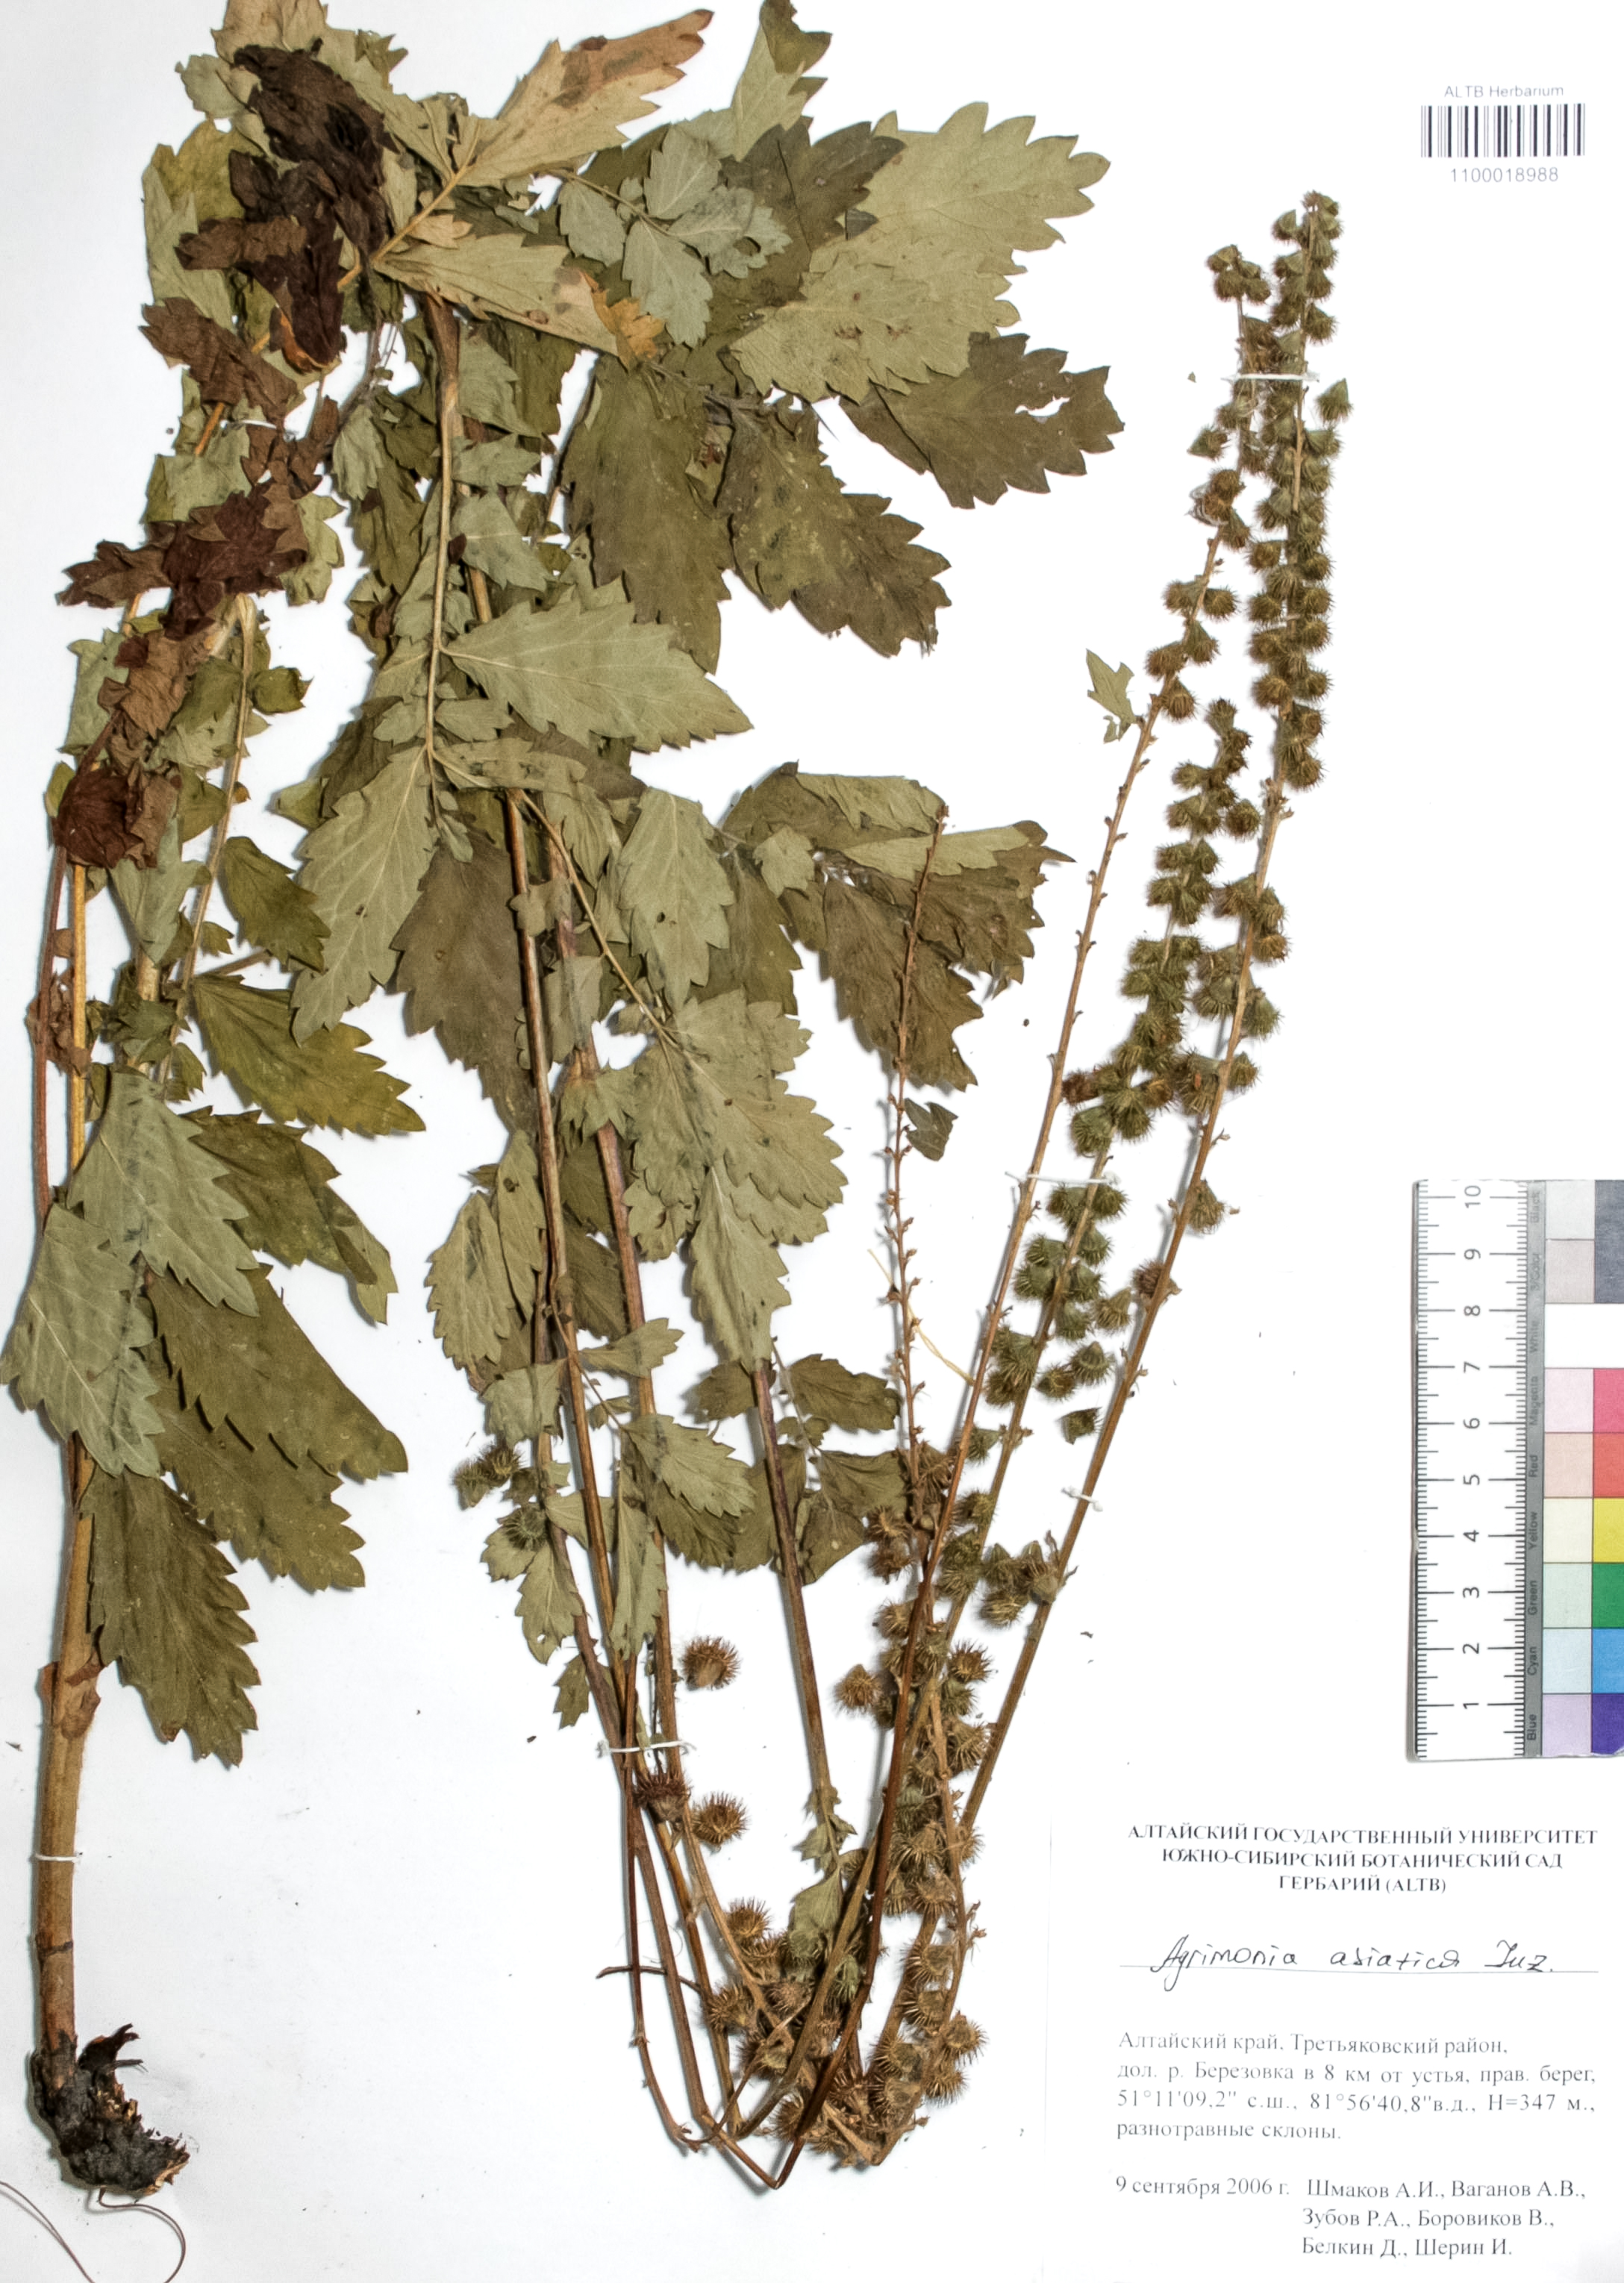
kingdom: Plantae
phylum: Tracheophyta
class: Magnoliopsida
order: Rosales
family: Rosaceae
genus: Agrimonia
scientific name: Agrimonia eupatoria
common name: Agrimony
